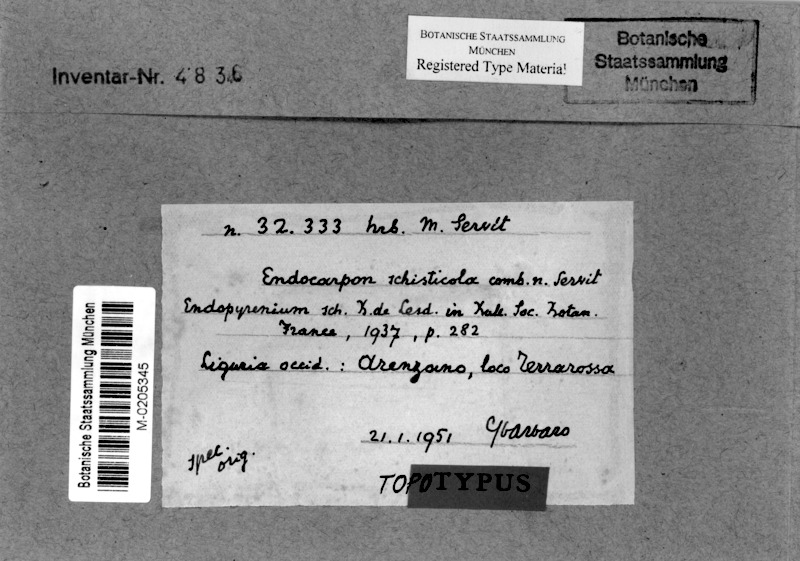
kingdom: Fungi
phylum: Ascomycota
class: Eurotiomycetes
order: Verrucariales
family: Verrucariaceae
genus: Endocarpon
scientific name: Endocarpon schisticola
